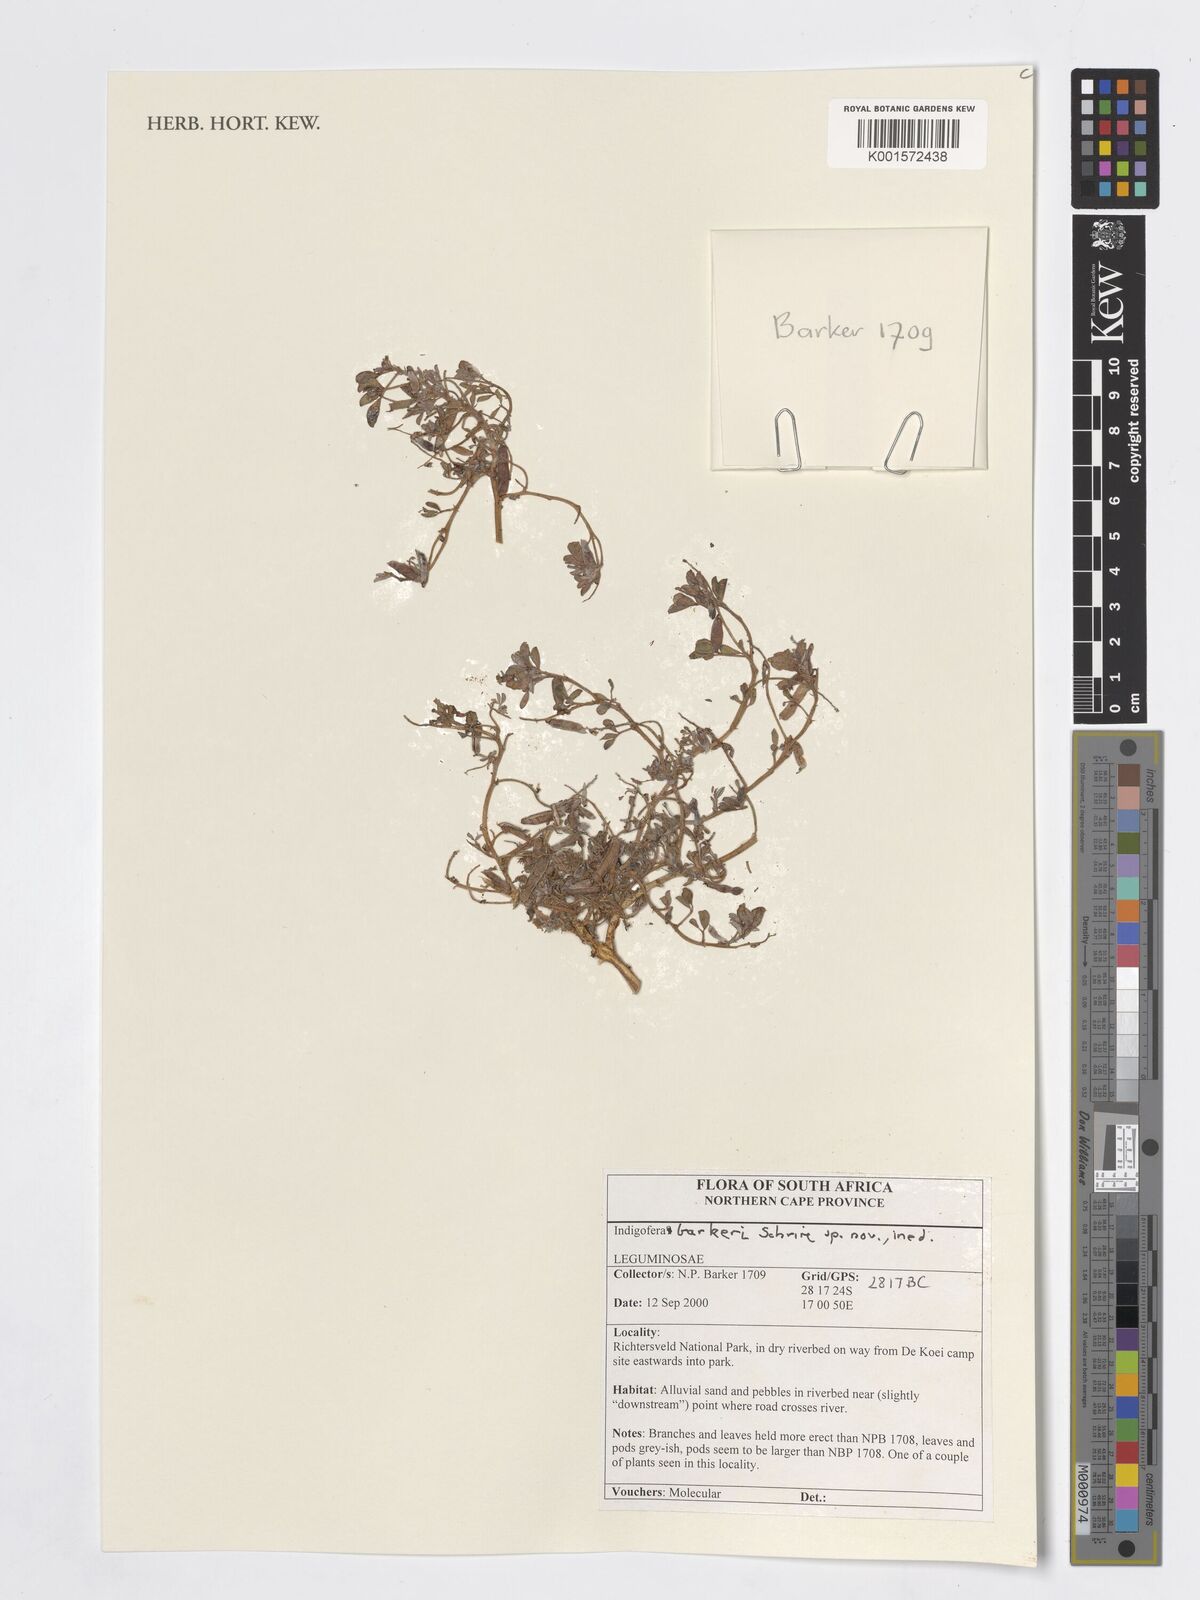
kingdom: Plantae
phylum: Tracheophyta
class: Magnoliopsida
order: Fabales
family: Fabaceae
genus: Indigofera
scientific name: Indigofera
